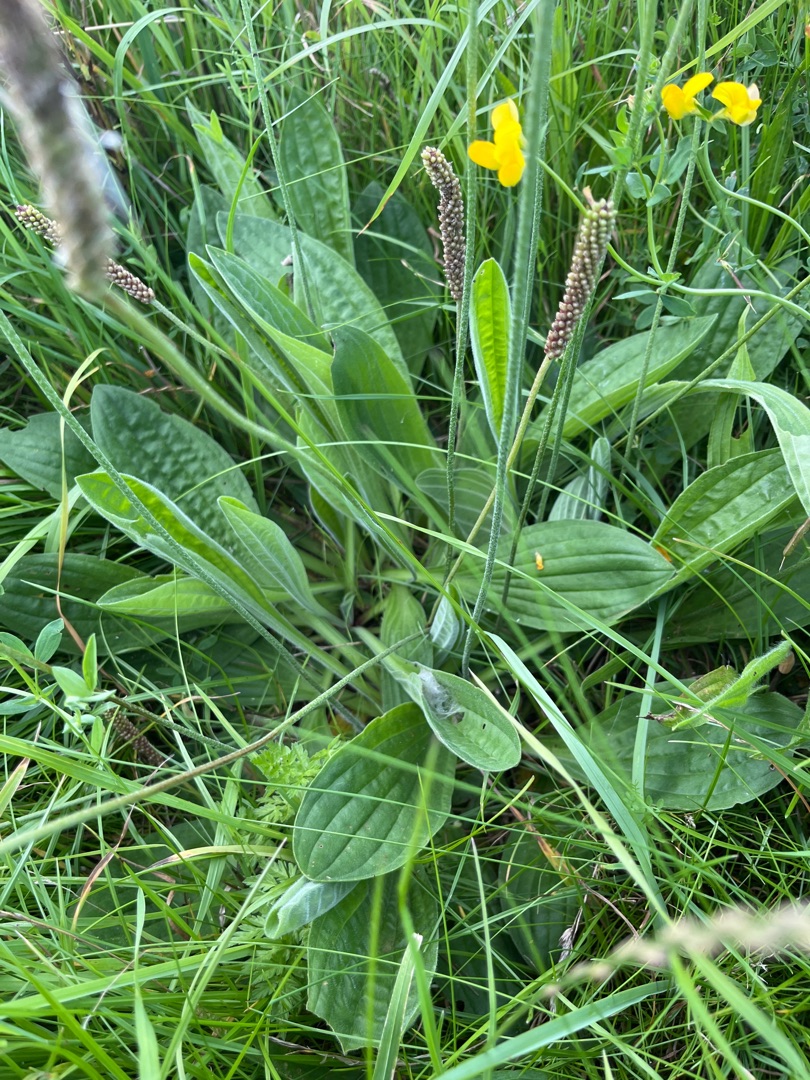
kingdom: Plantae
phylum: Tracheophyta
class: Magnoliopsida
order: Lamiales
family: Plantaginaceae
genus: Plantago
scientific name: Plantago media
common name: Dunet vejbred
